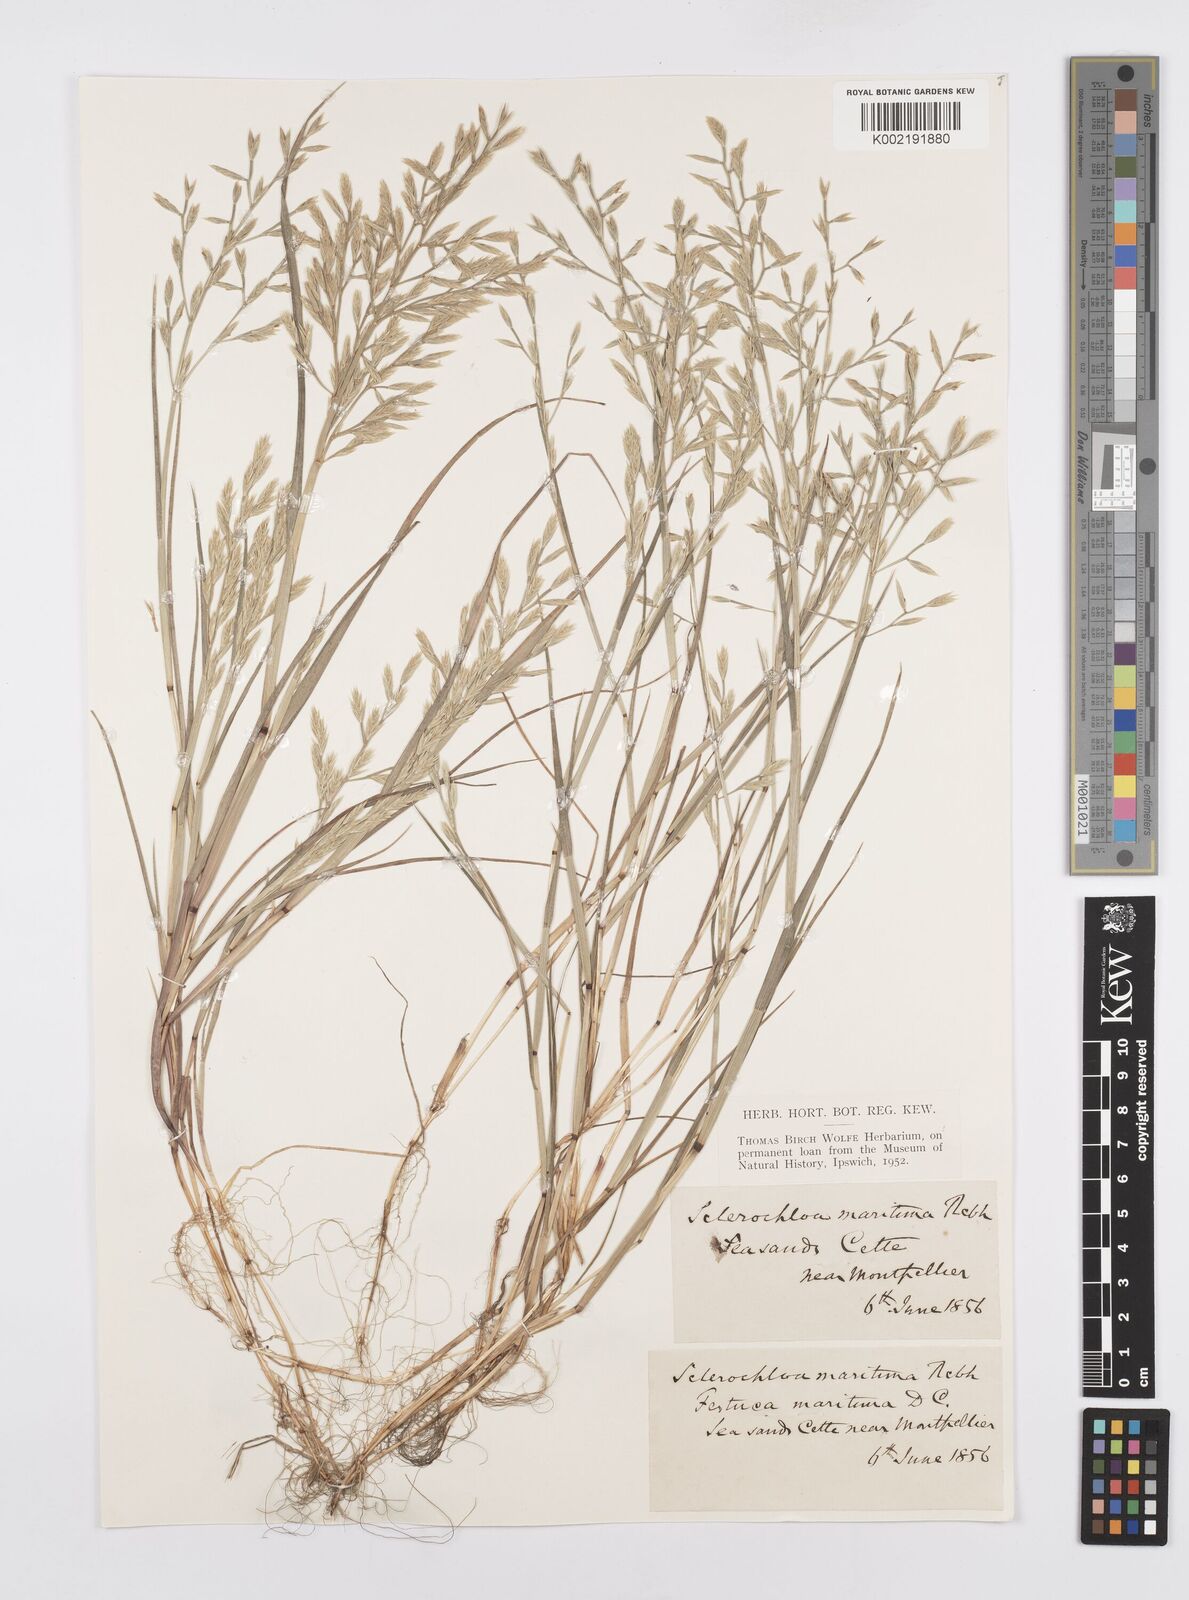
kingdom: Plantae
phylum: Tracheophyta
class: Liliopsida
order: Poales
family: Poaceae
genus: Cutandia
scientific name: Cutandia maritima
